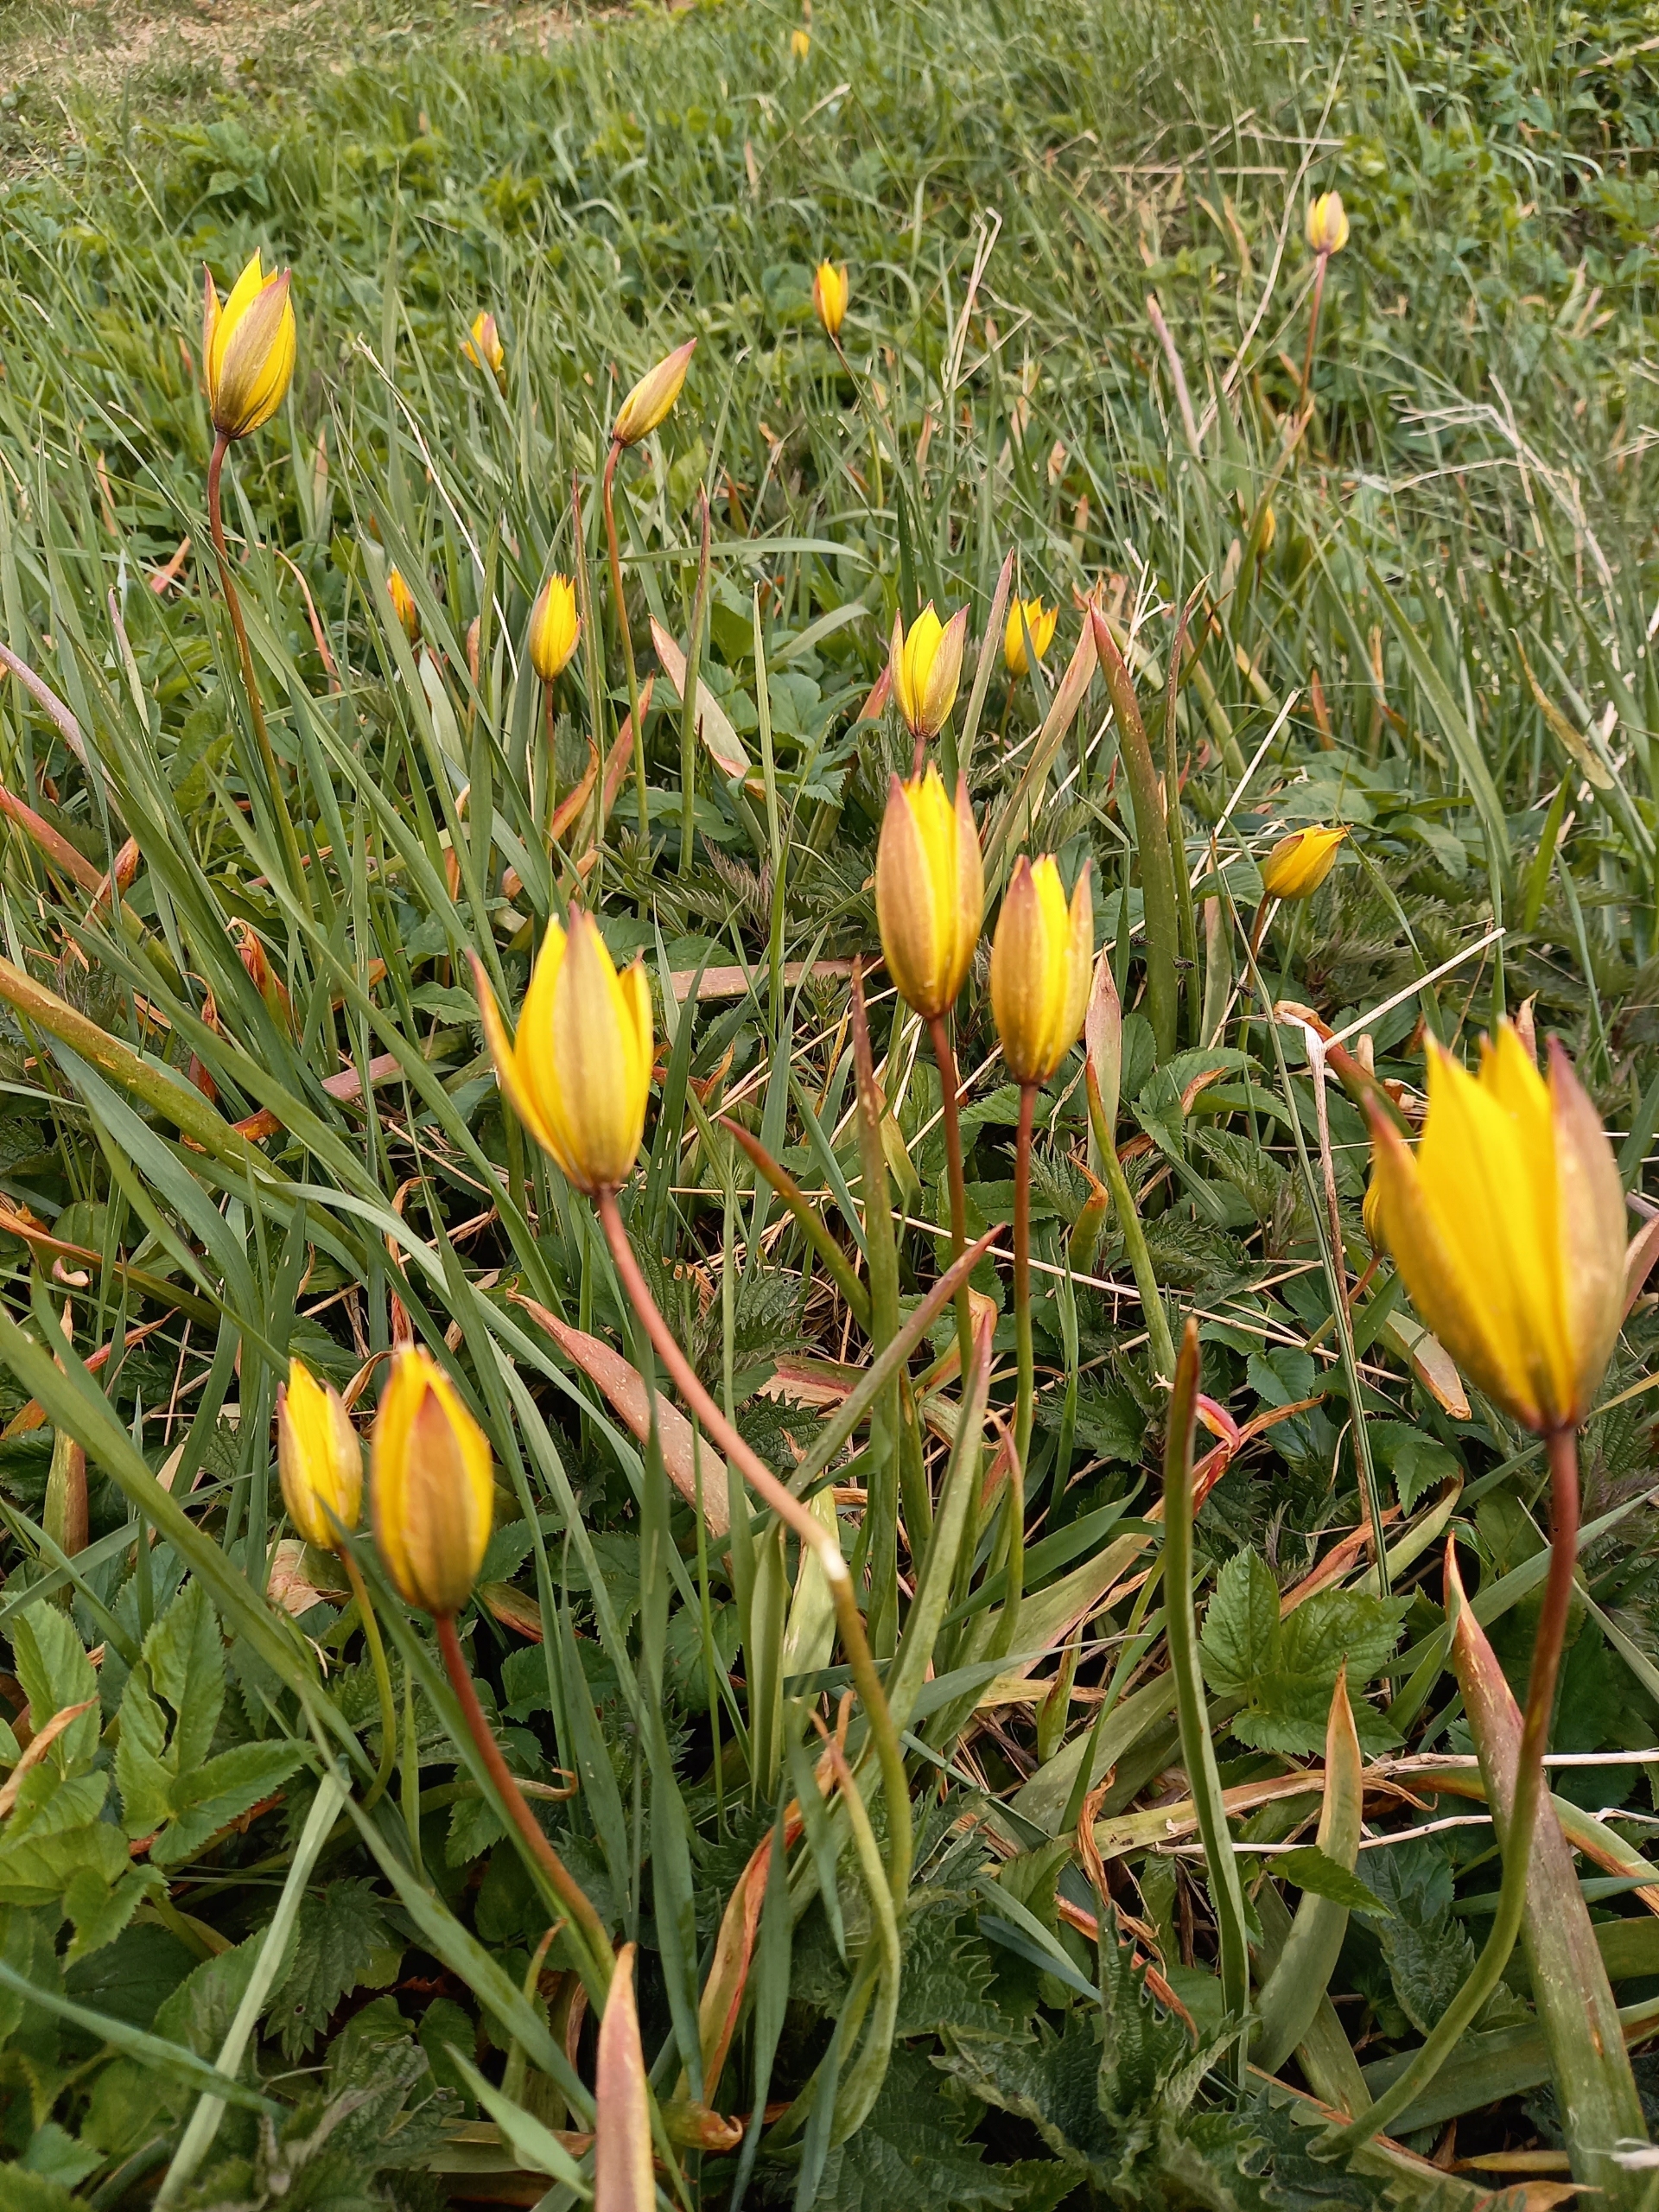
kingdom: Plantae
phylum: Tracheophyta
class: Liliopsida
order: Liliales
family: Liliaceae
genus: Tulipa
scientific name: Tulipa sylvestris
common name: Vild tulipan
